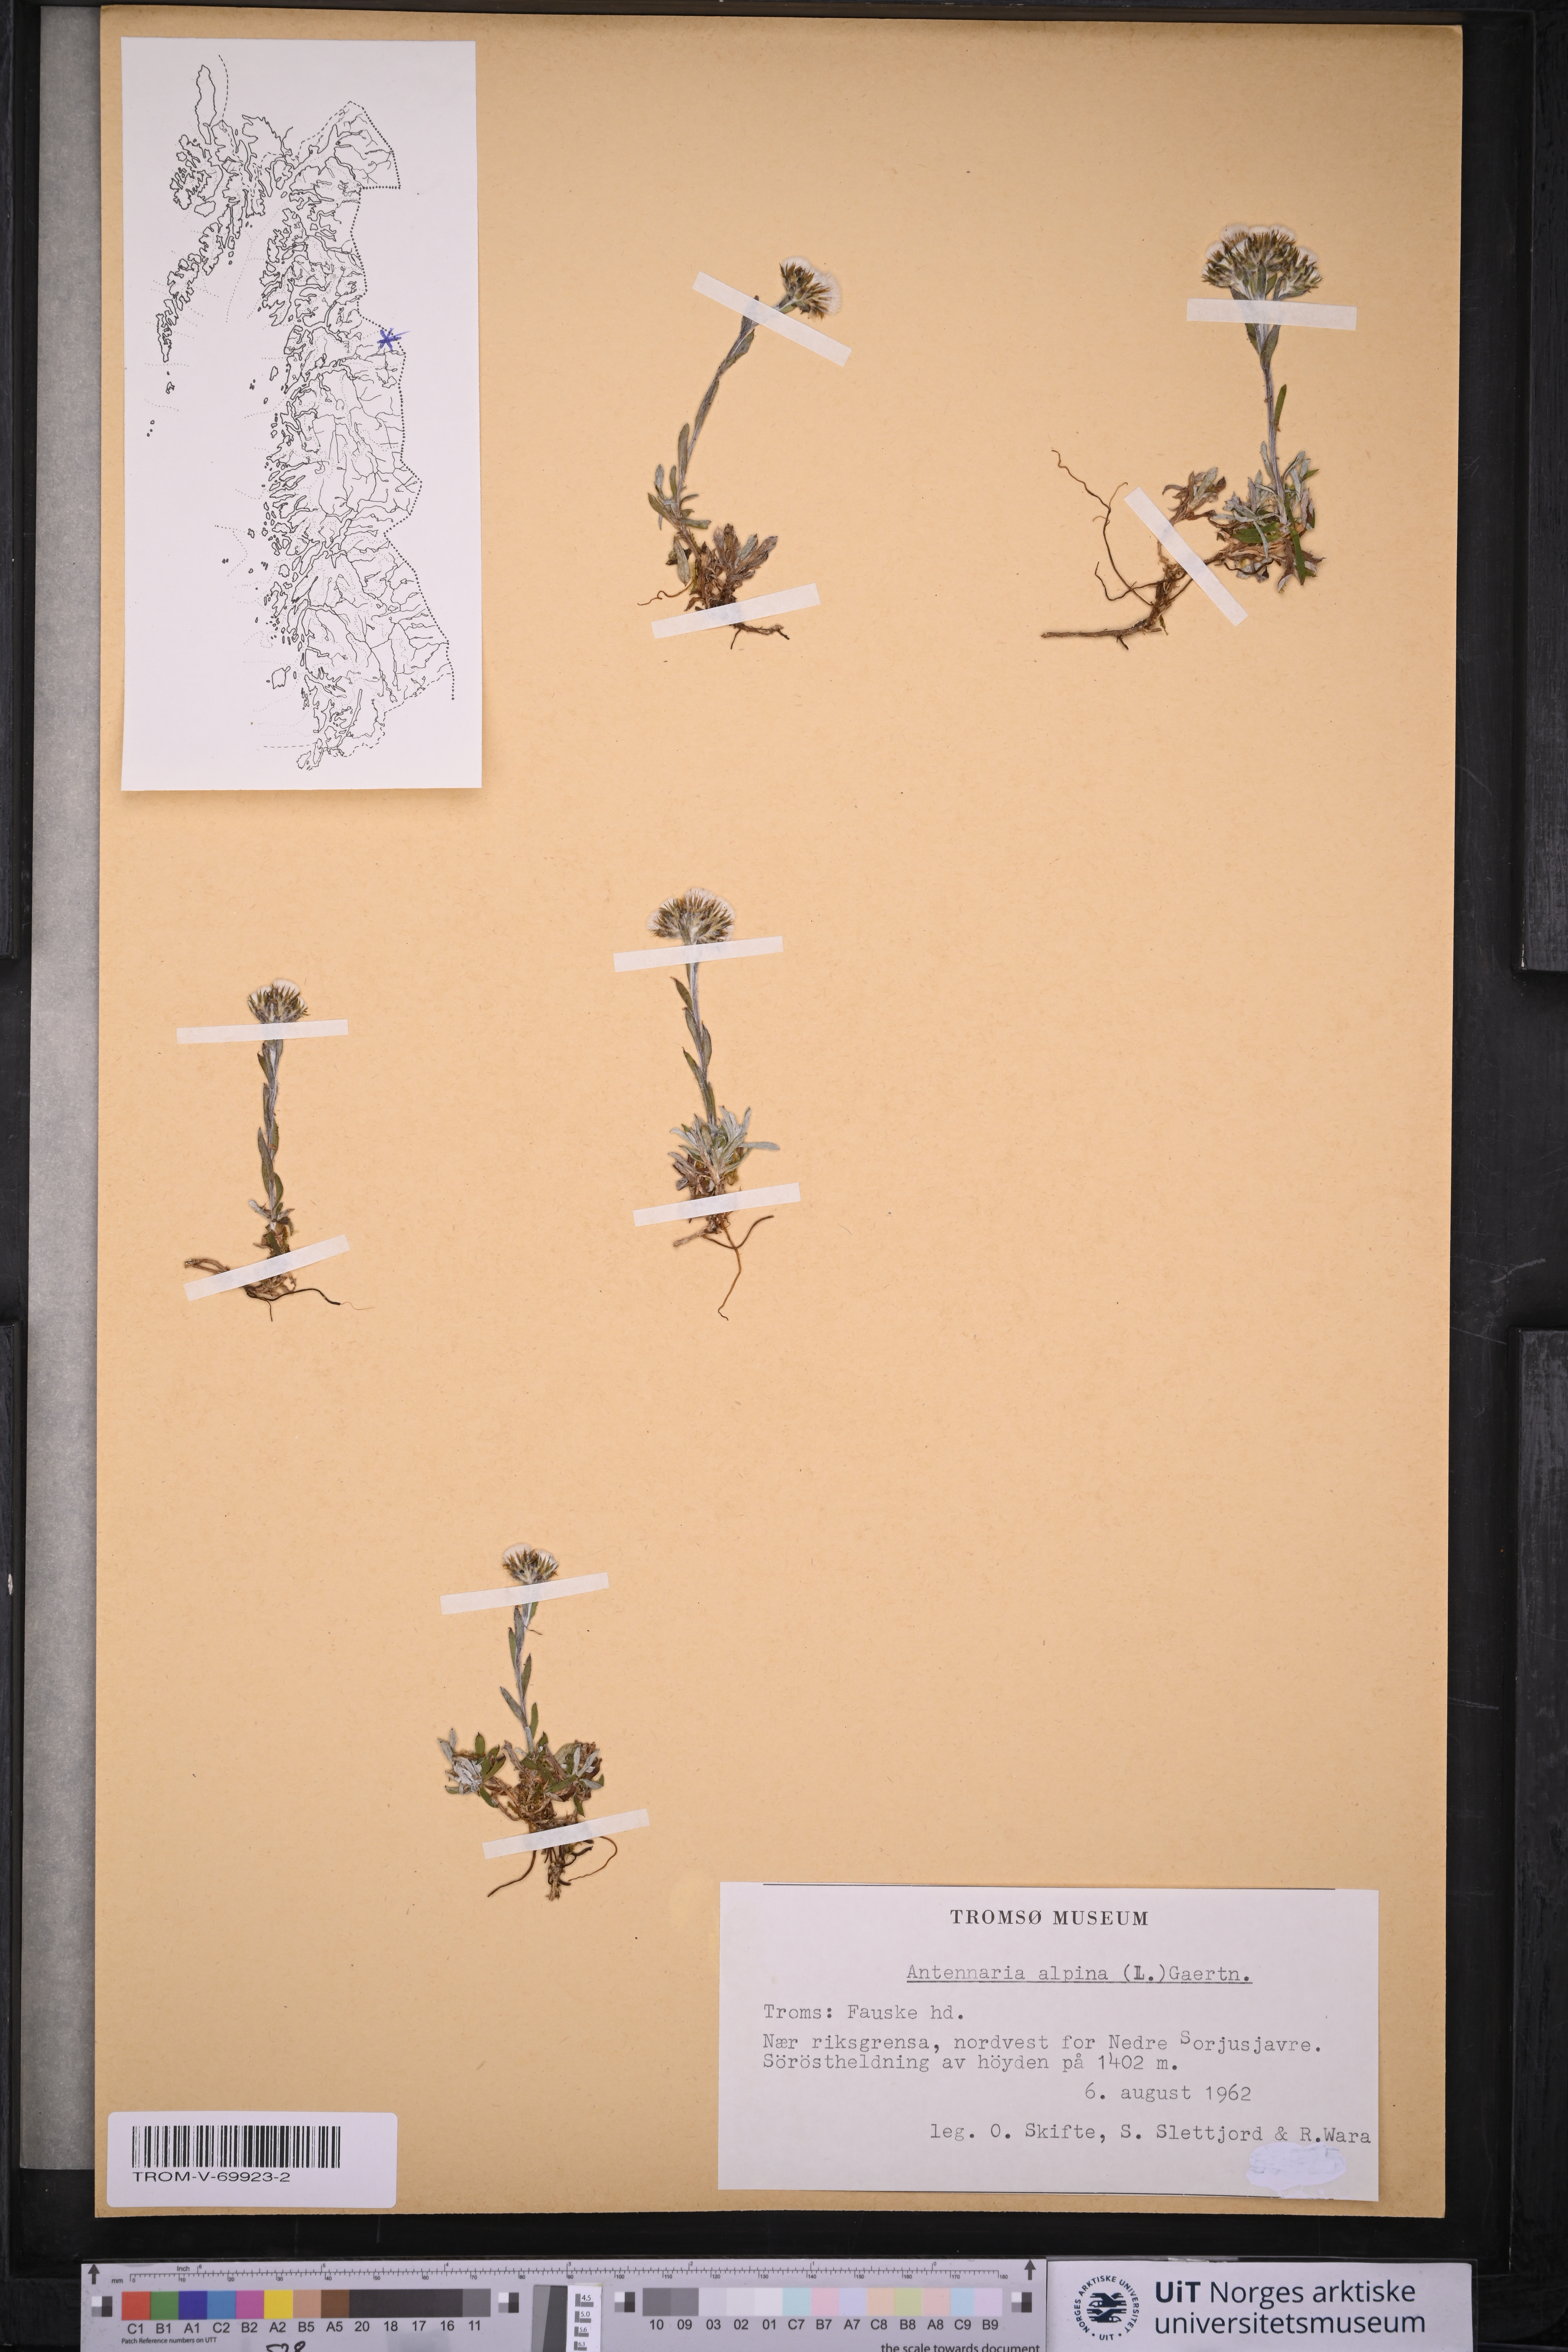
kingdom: Plantae
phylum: Tracheophyta
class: Magnoliopsida
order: Asterales
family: Asteraceae
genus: Antennaria
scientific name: Antennaria alpina
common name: Alpine pussytoes
